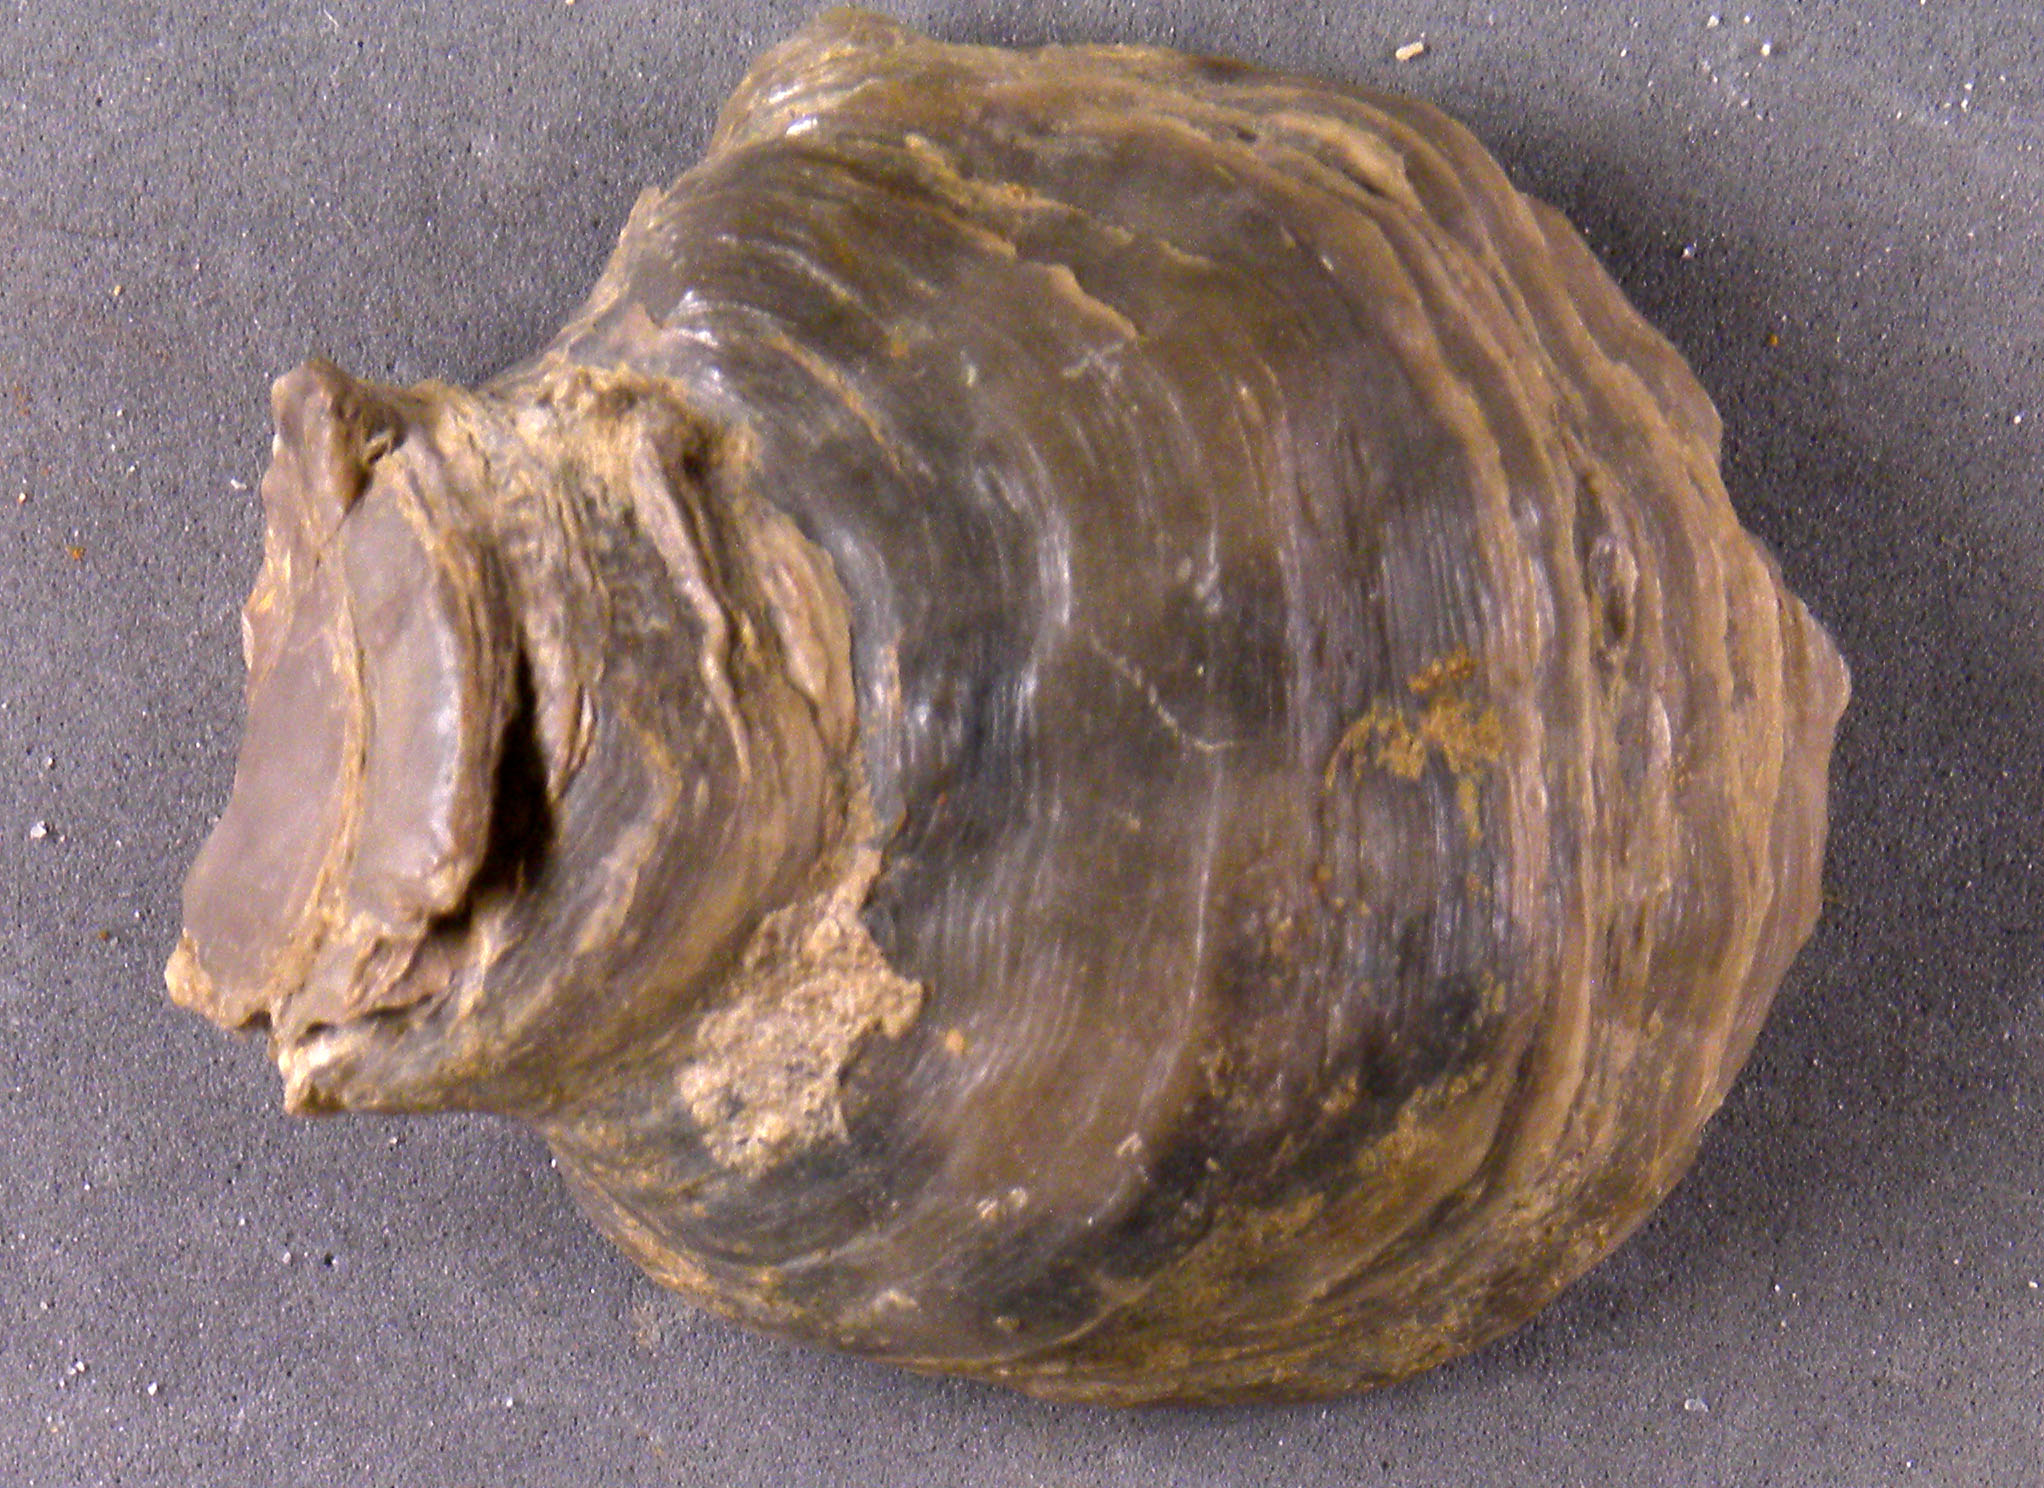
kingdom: Animalia
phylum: Mollusca
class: Bivalvia
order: Ostreida
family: Ostreidae
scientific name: Ostreidae
